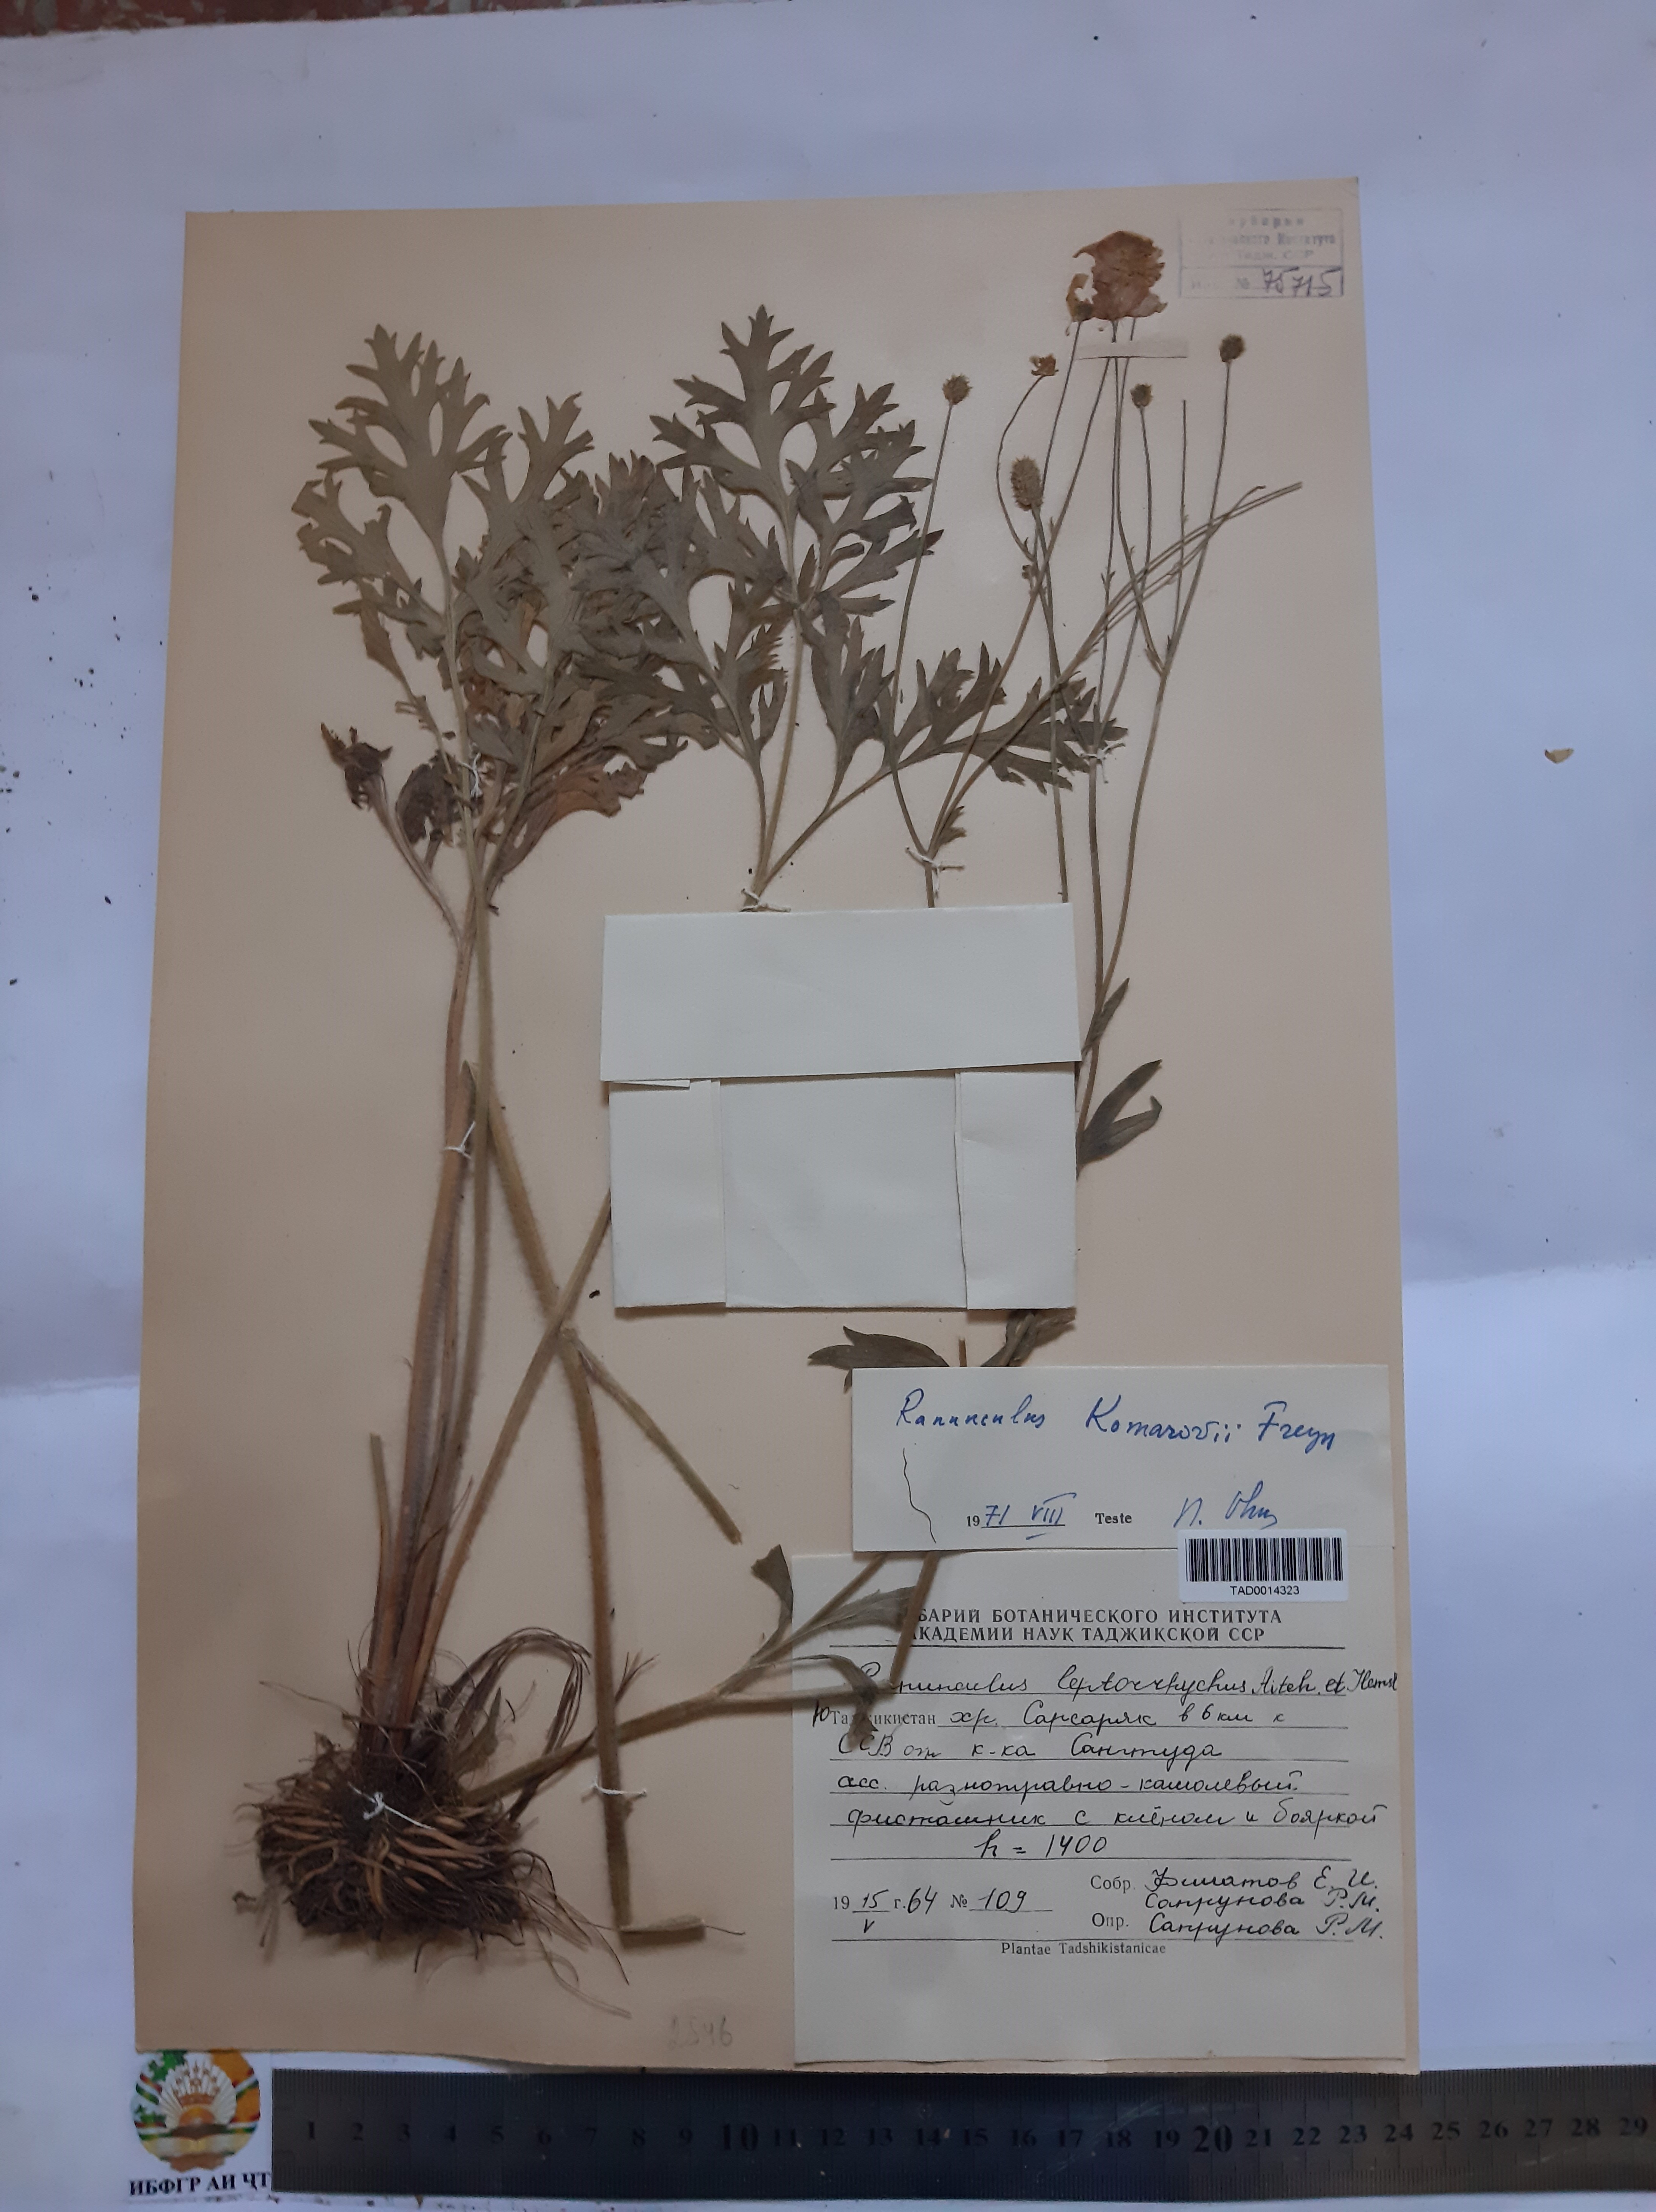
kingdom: Plantae
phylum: Tracheophyta
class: Magnoliopsida
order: Ranunculales
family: Ranunculaceae
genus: Ranunculus
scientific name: Ranunculus leptorrhynchus
